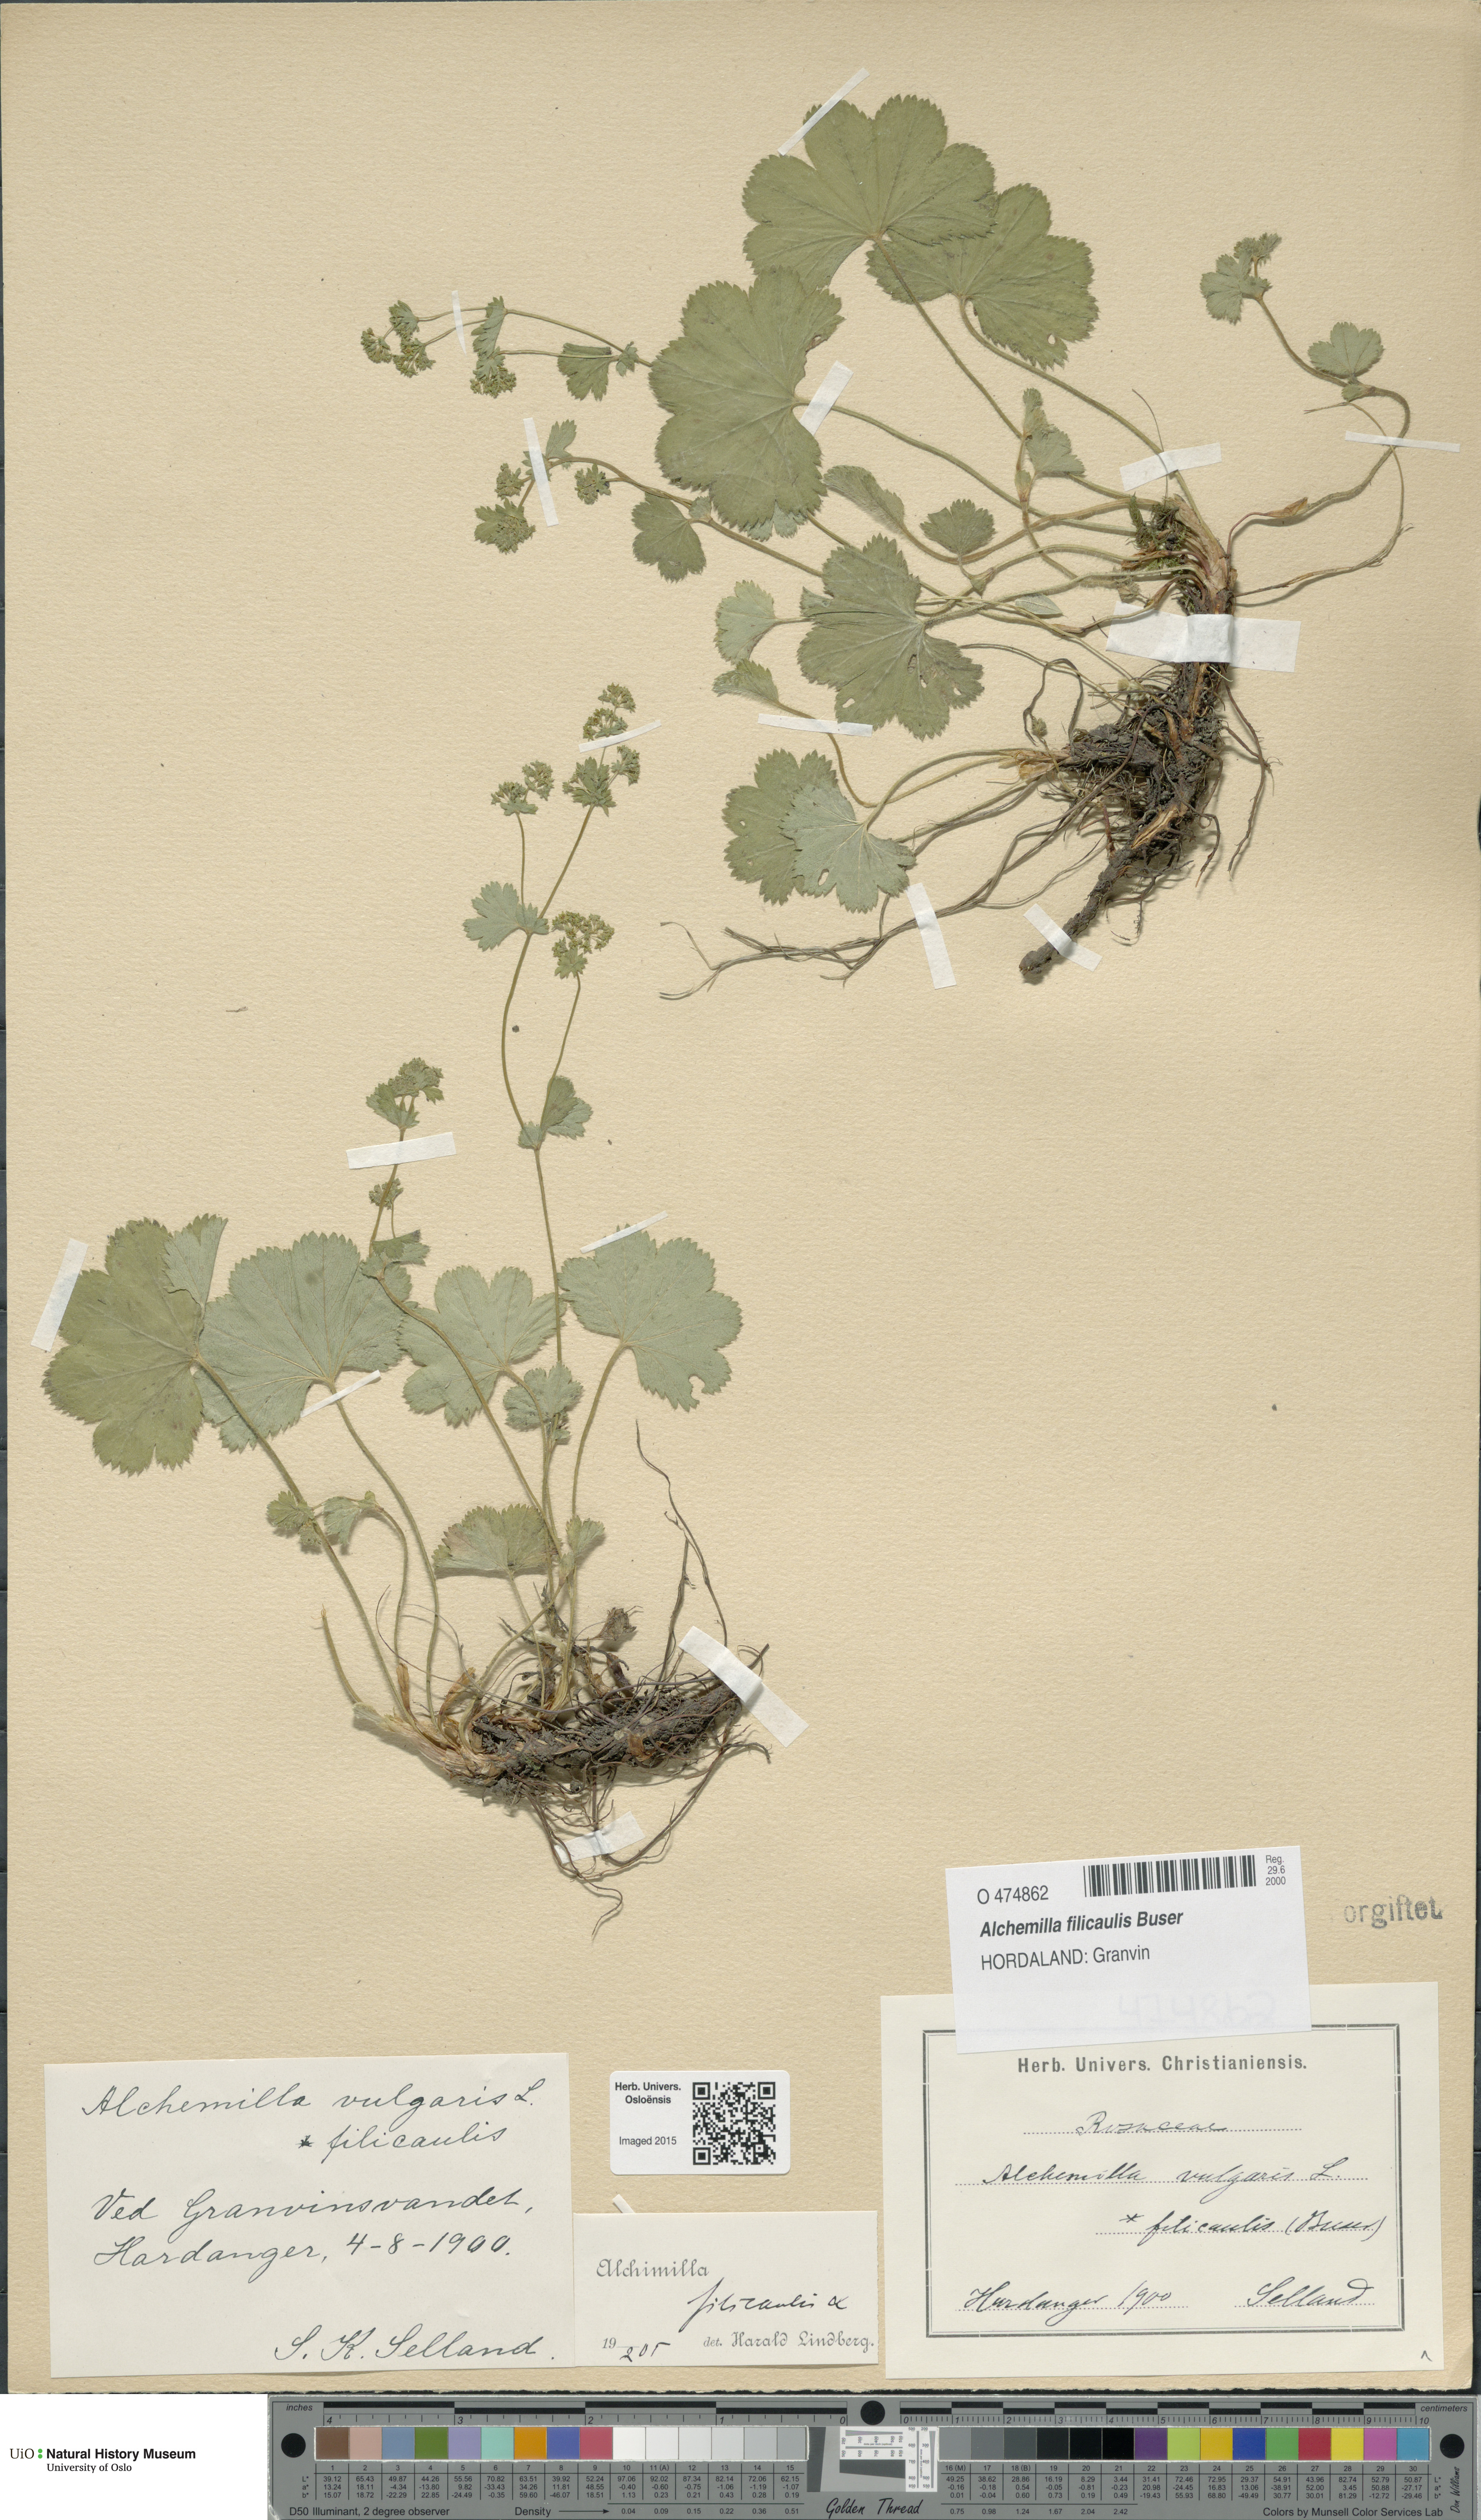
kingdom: Plantae
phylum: Tracheophyta
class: Magnoliopsida
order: Rosales
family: Rosaceae
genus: Alchemilla
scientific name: Alchemilla filicaulis
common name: Hairy lady's-mantle
